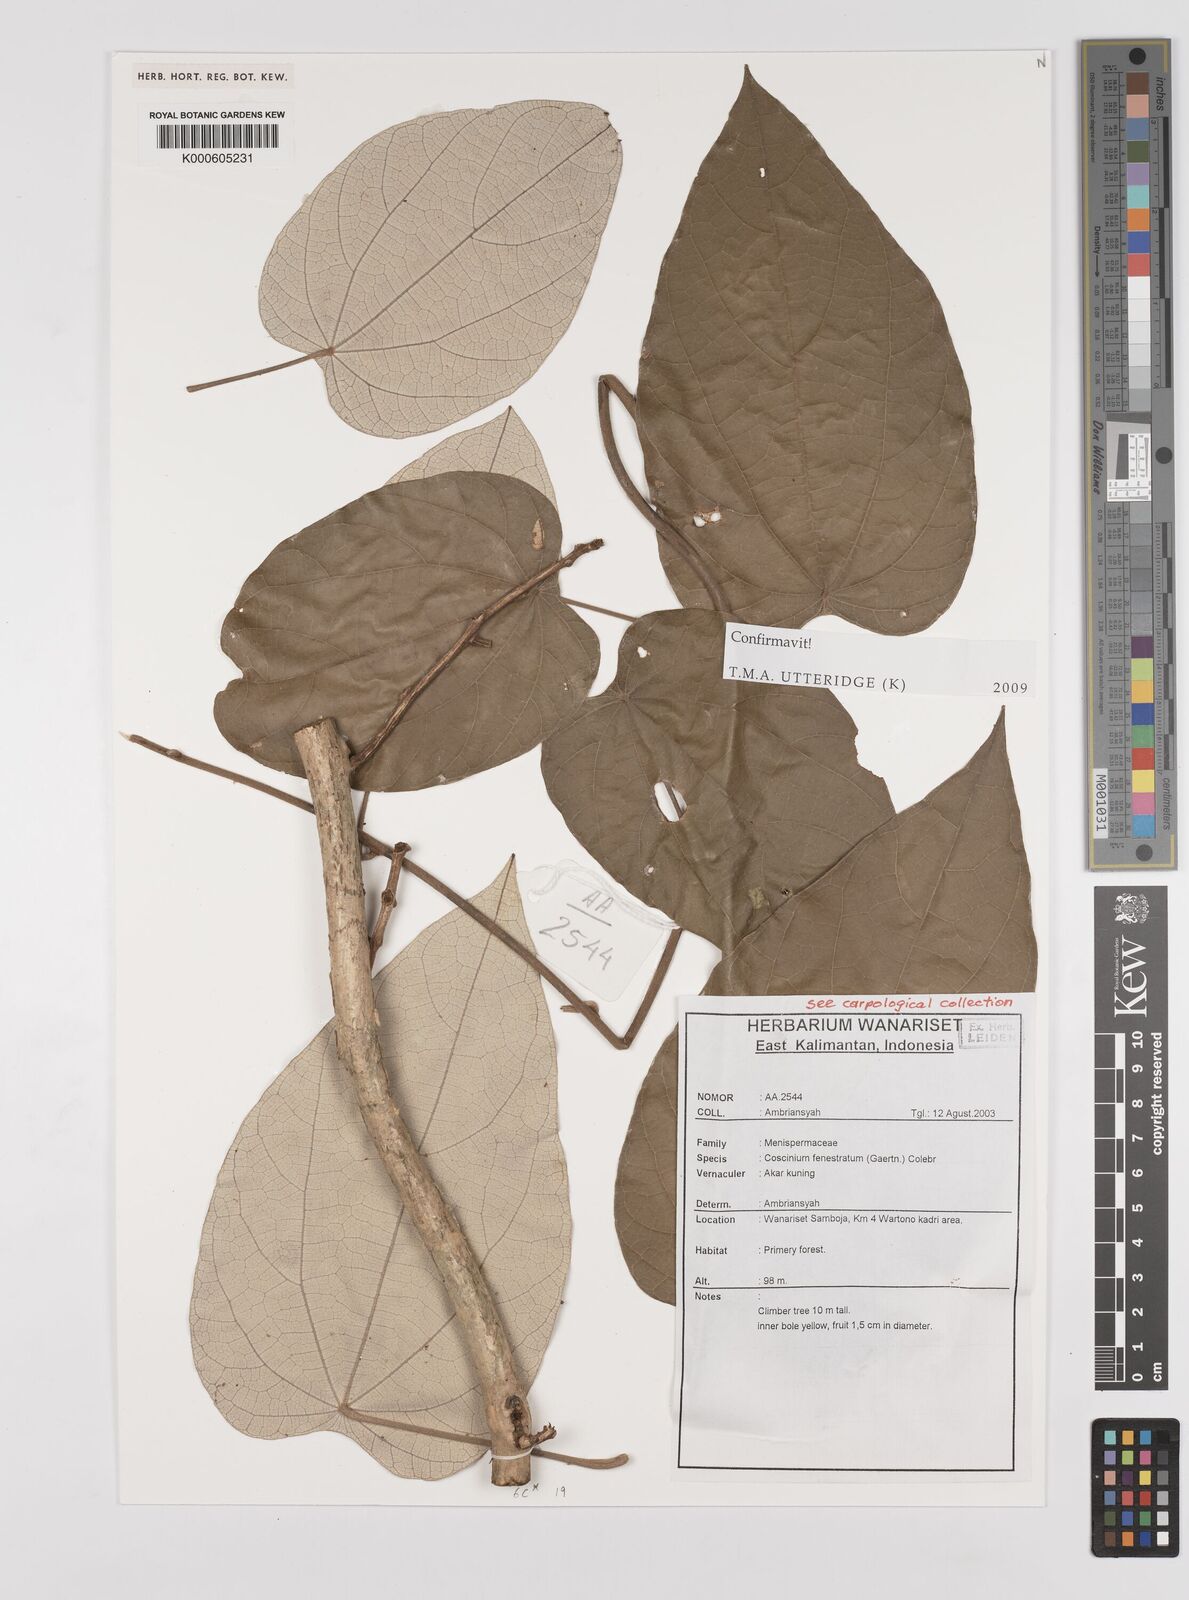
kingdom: Plantae
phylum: Tracheophyta
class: Magnoliopsida
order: Ranunculales
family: Menispermaceae
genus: Coscinium
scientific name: Coscinium fenestratum
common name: False calumba
